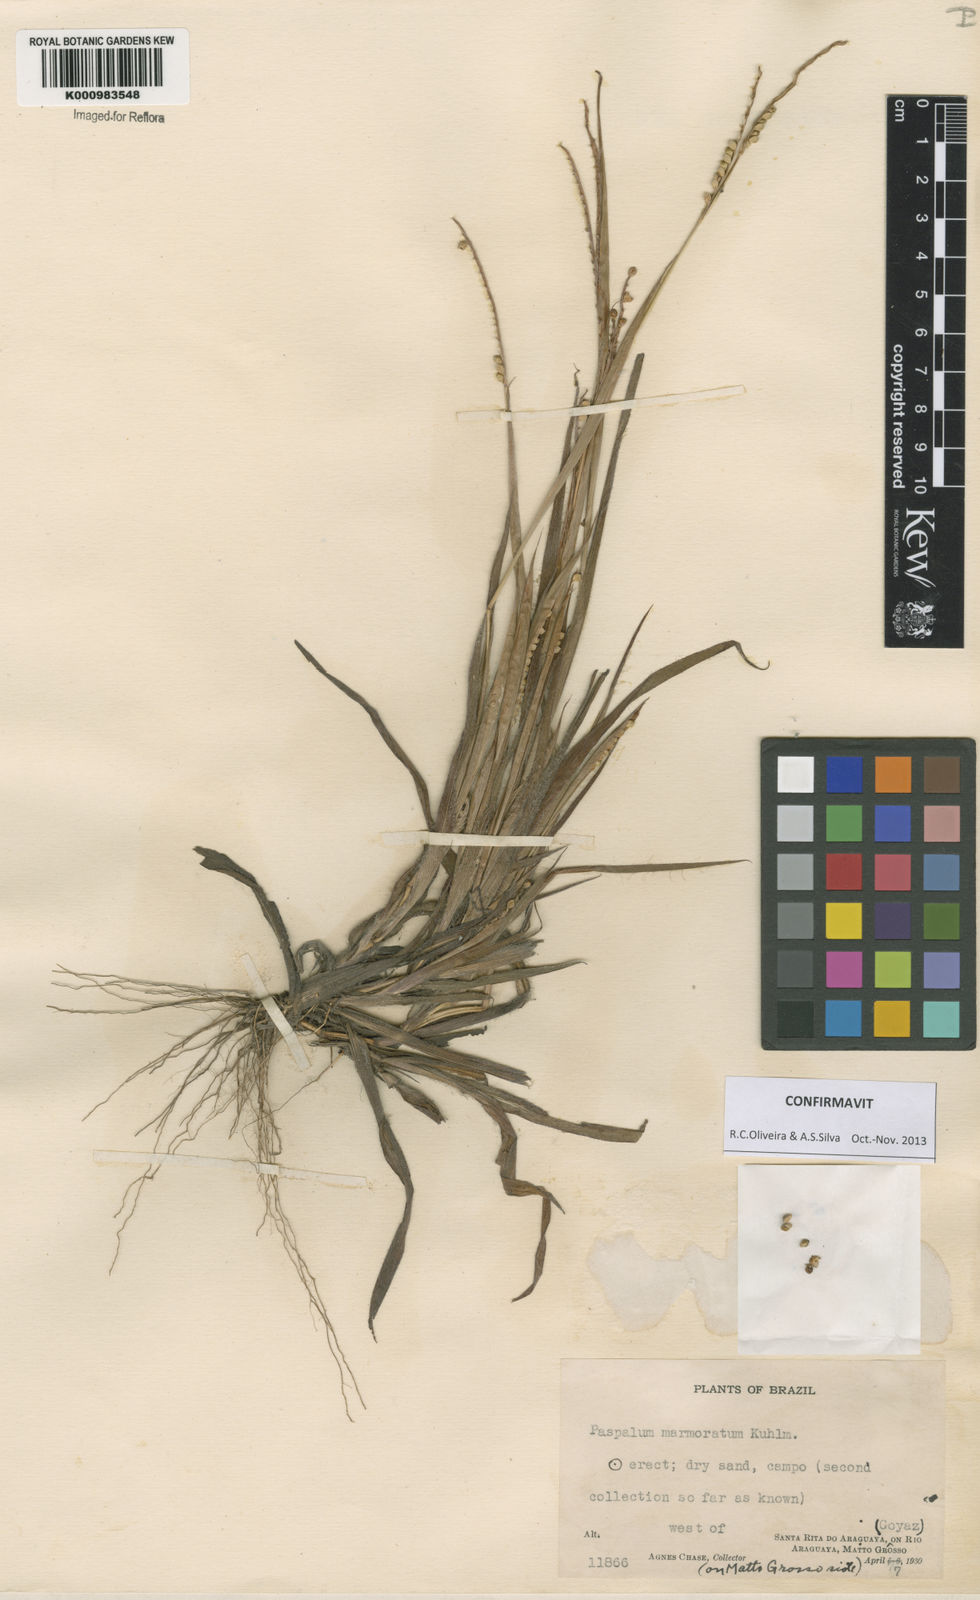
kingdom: Plantae
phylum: Tracheophyta
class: Liliopsida
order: Poales
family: Poaceae
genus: Paspalum
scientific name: Paspalum marmoratum
